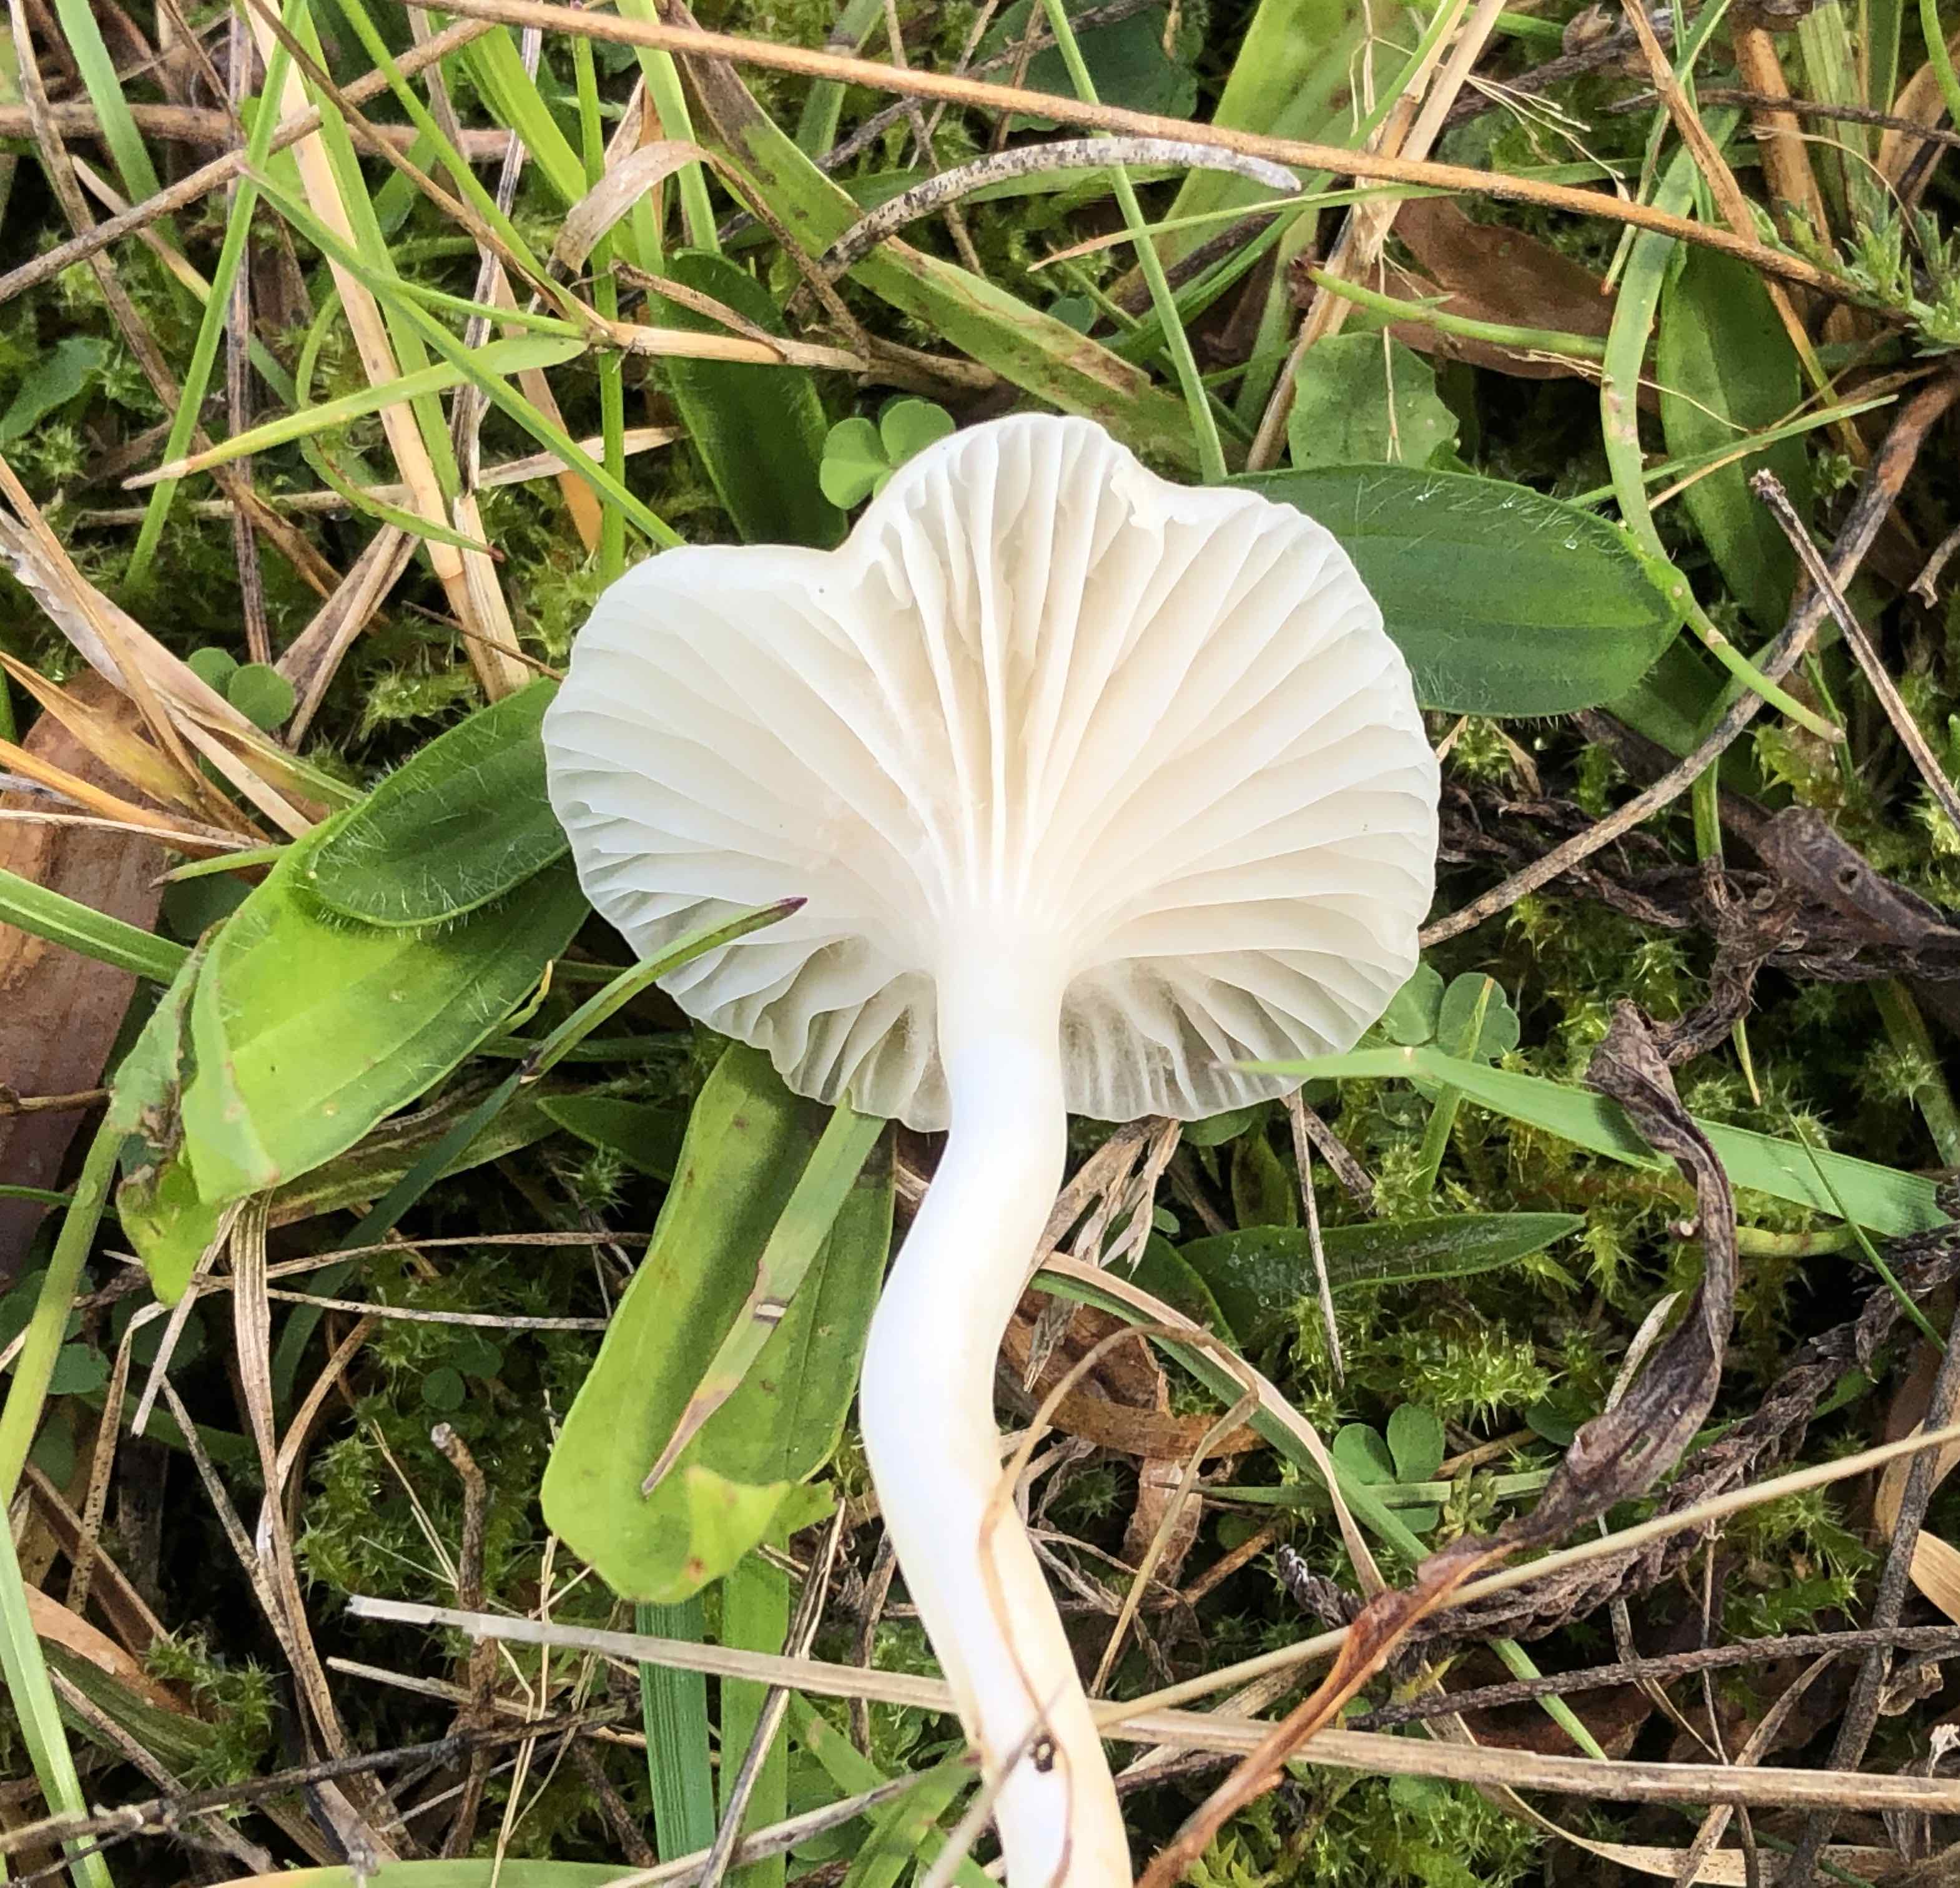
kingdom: Fungi
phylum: Basidiomycota
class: Agaricomycetes
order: Agaricales
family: Hygrophoraceae
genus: Cuphophyllus
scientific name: Cuphophyllus virgineus
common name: snehvid vokshat
